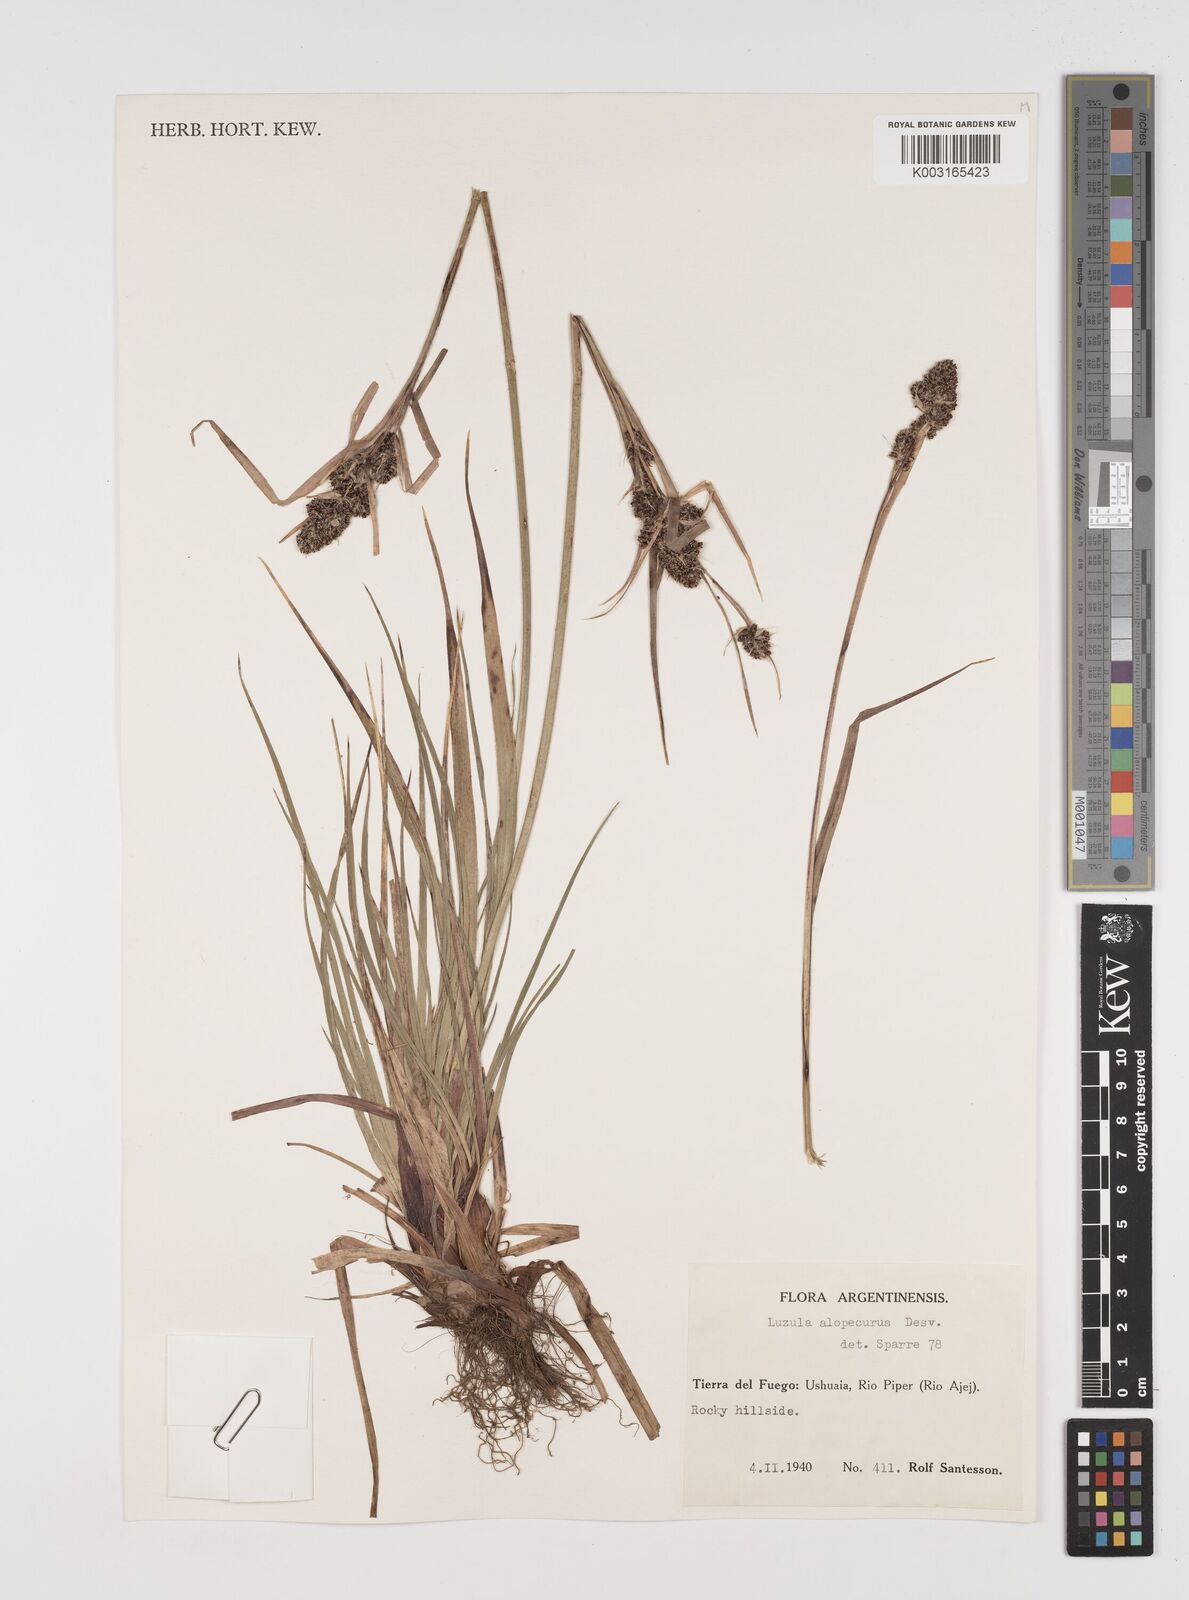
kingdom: Plantae
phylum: Tracheophyta
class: Liliopsida
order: Poales
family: Juncaceae
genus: Luzula
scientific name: Luzula alopecurus
